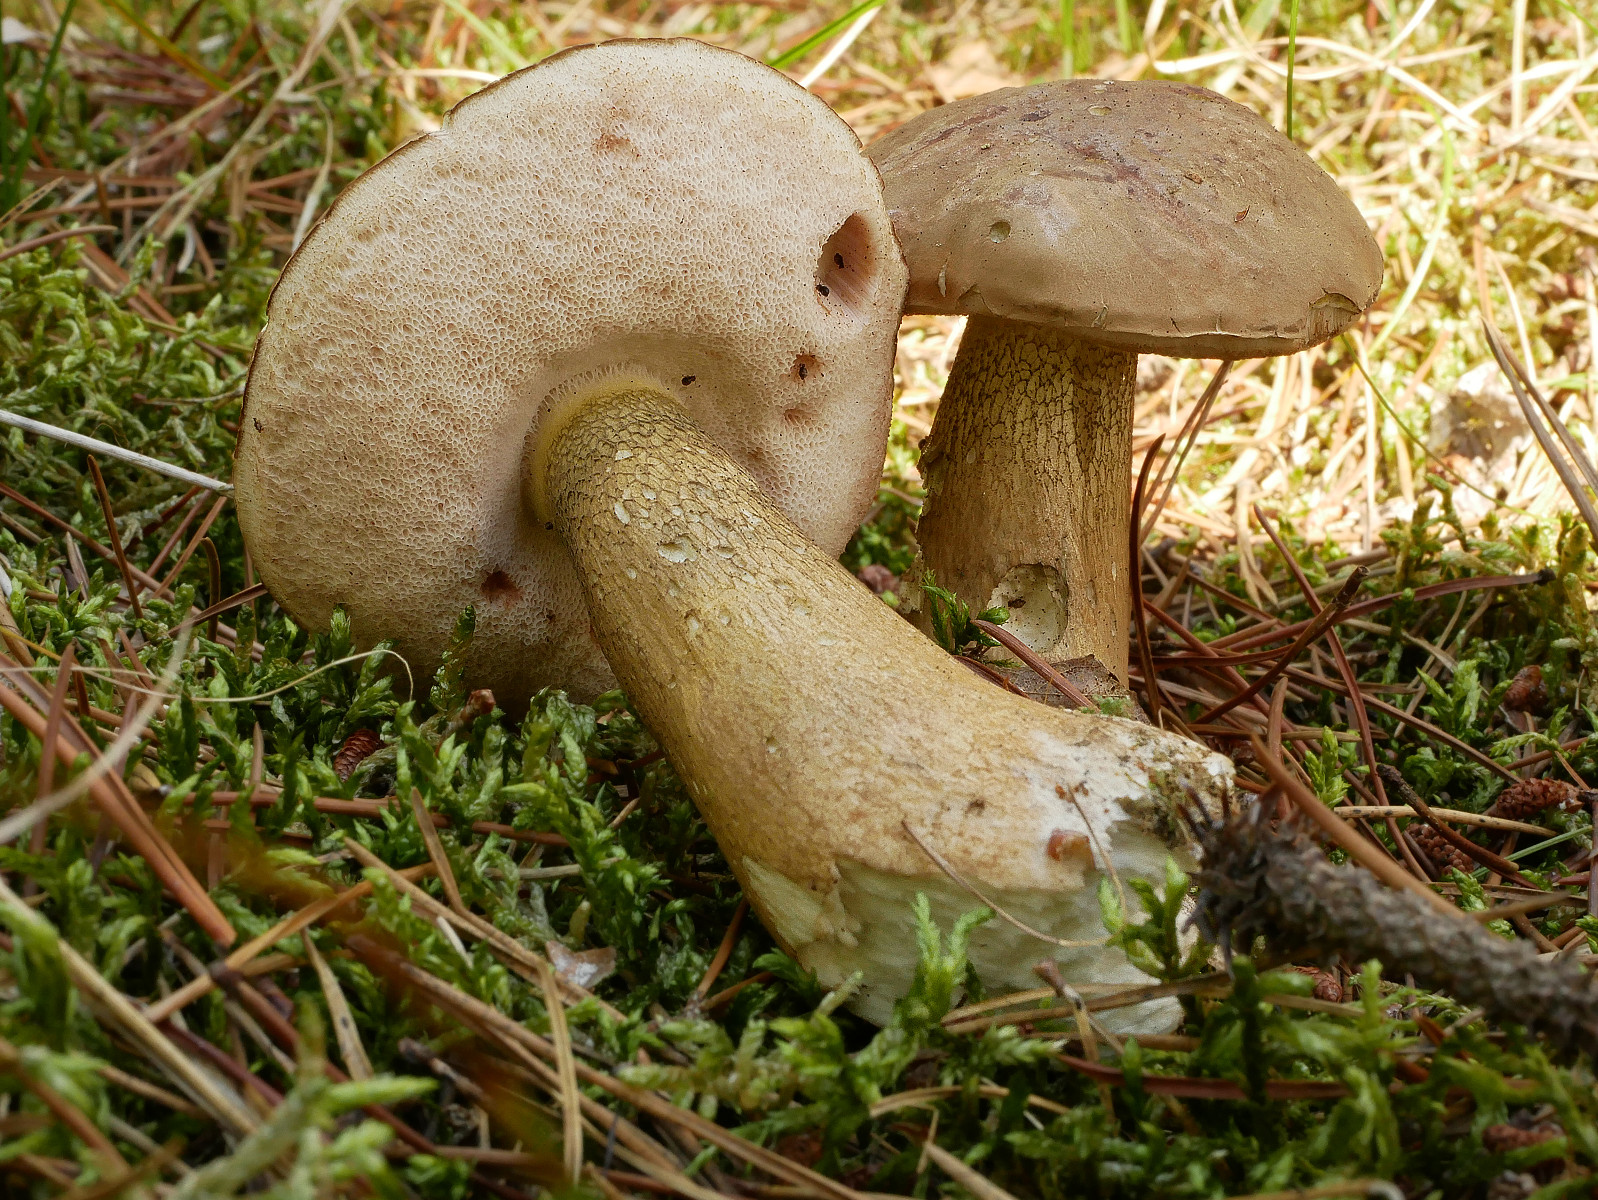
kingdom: Fungi
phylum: Basidiomycota
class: Agaricomycetes
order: Boletales
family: Boletaceae
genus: Tylopilus
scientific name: Tylopilus felleus
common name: galderørhat
